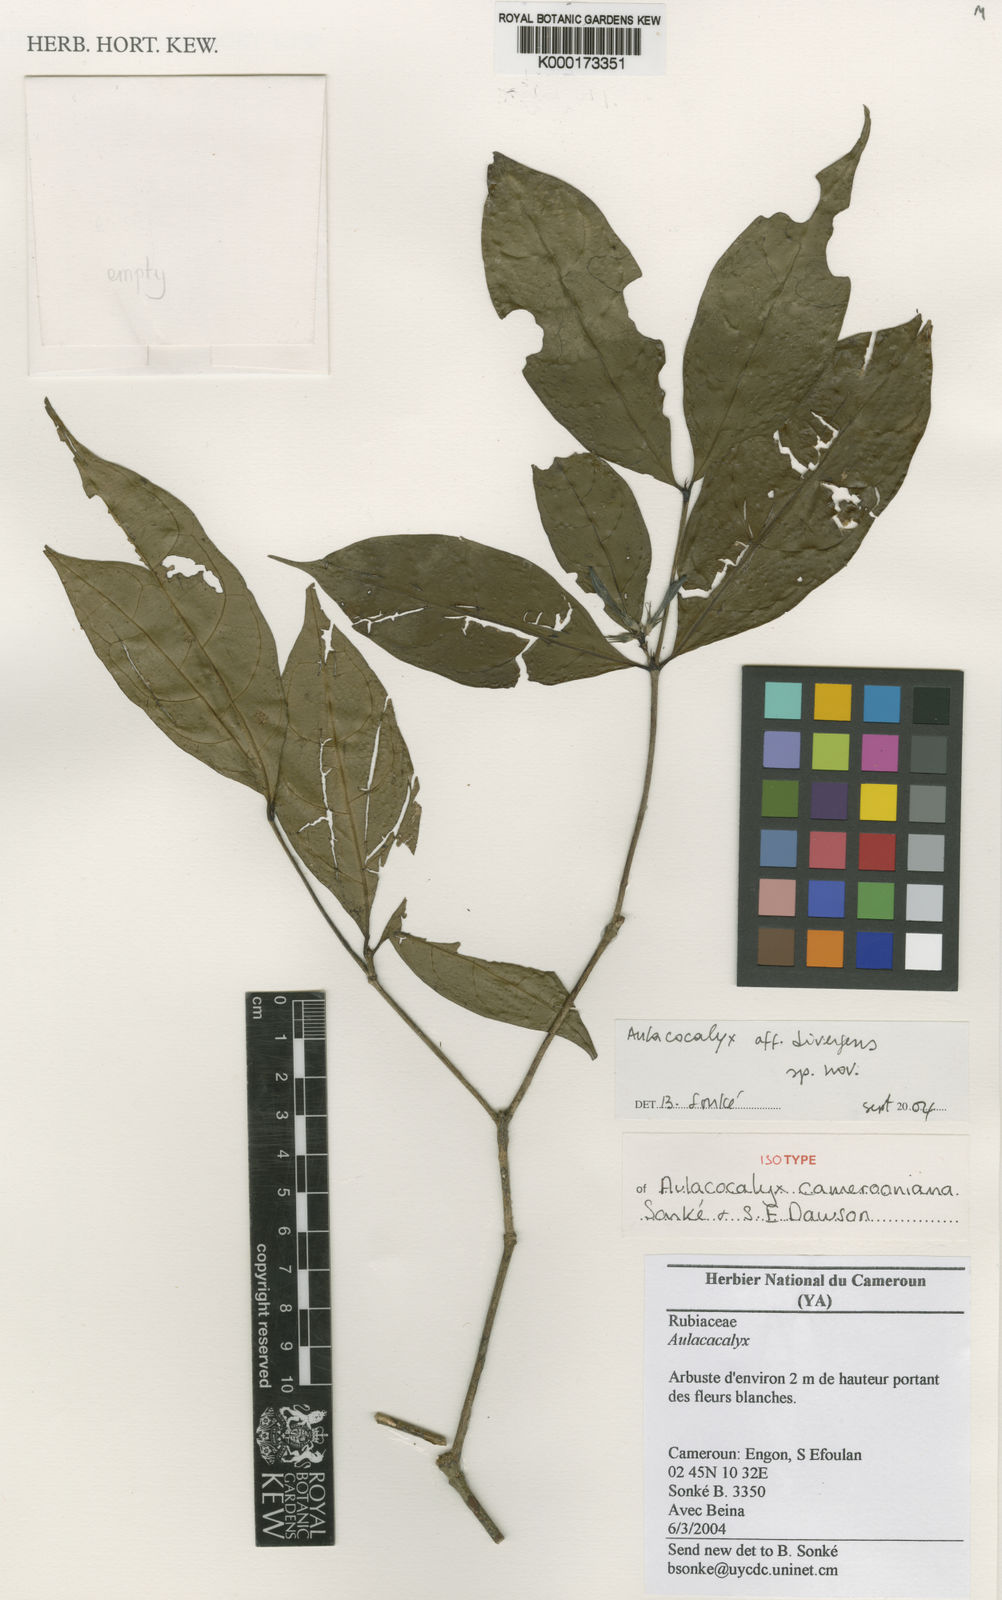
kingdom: Plantae
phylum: Tracheophyta
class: Magnoliopsida
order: Gentianales
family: Rubiaceae
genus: Aulacocalyx
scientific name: Aulacocalyx
